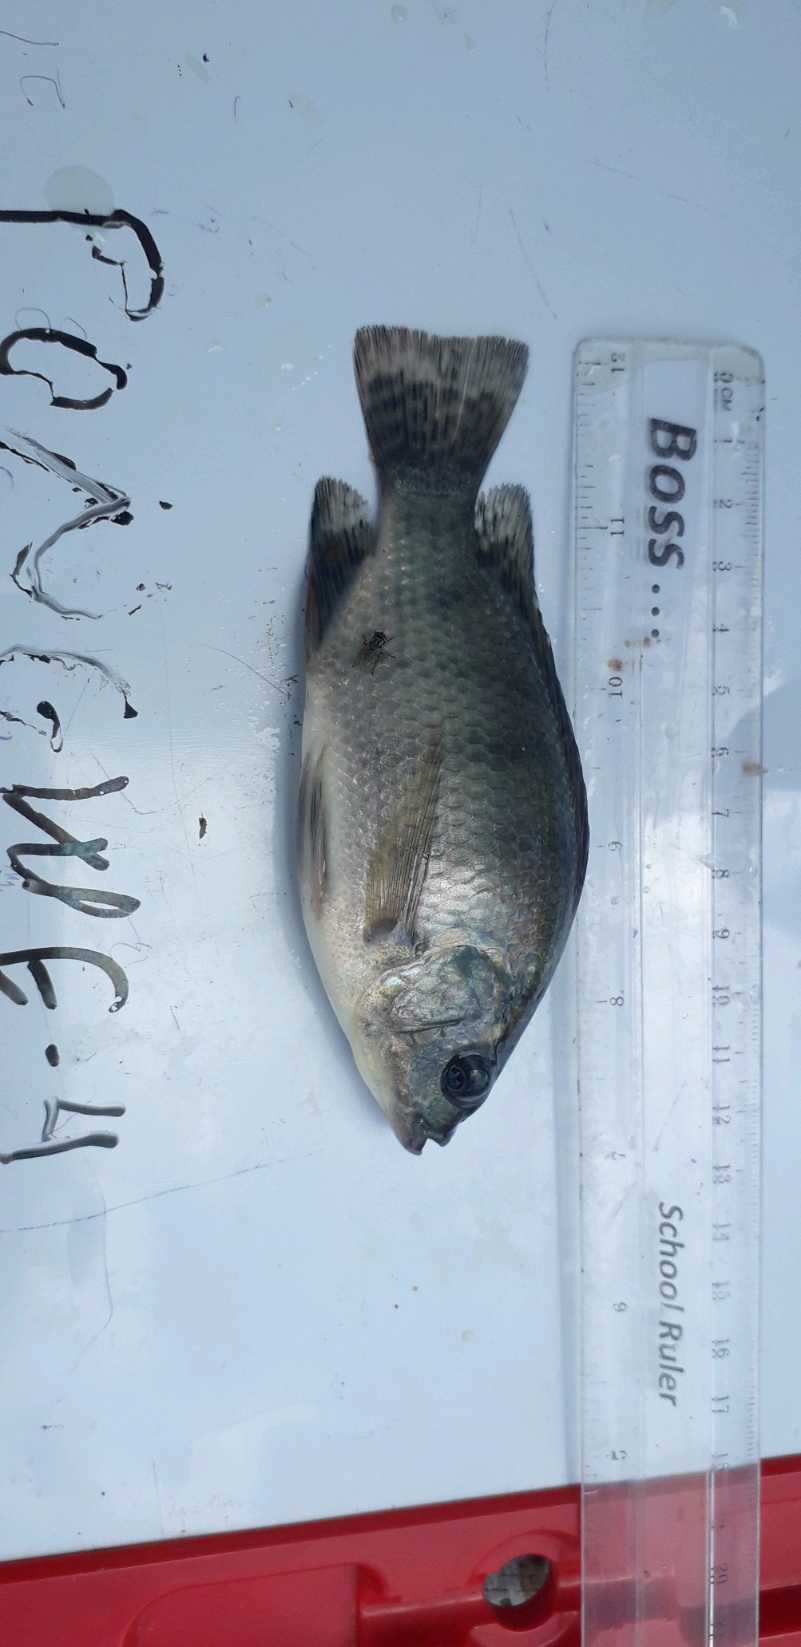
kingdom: Animalia
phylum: Chordata
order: Perciformes
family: Cichlidae
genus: Oreochromis
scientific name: Oreochromis niloticus
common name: Nile tilapia
